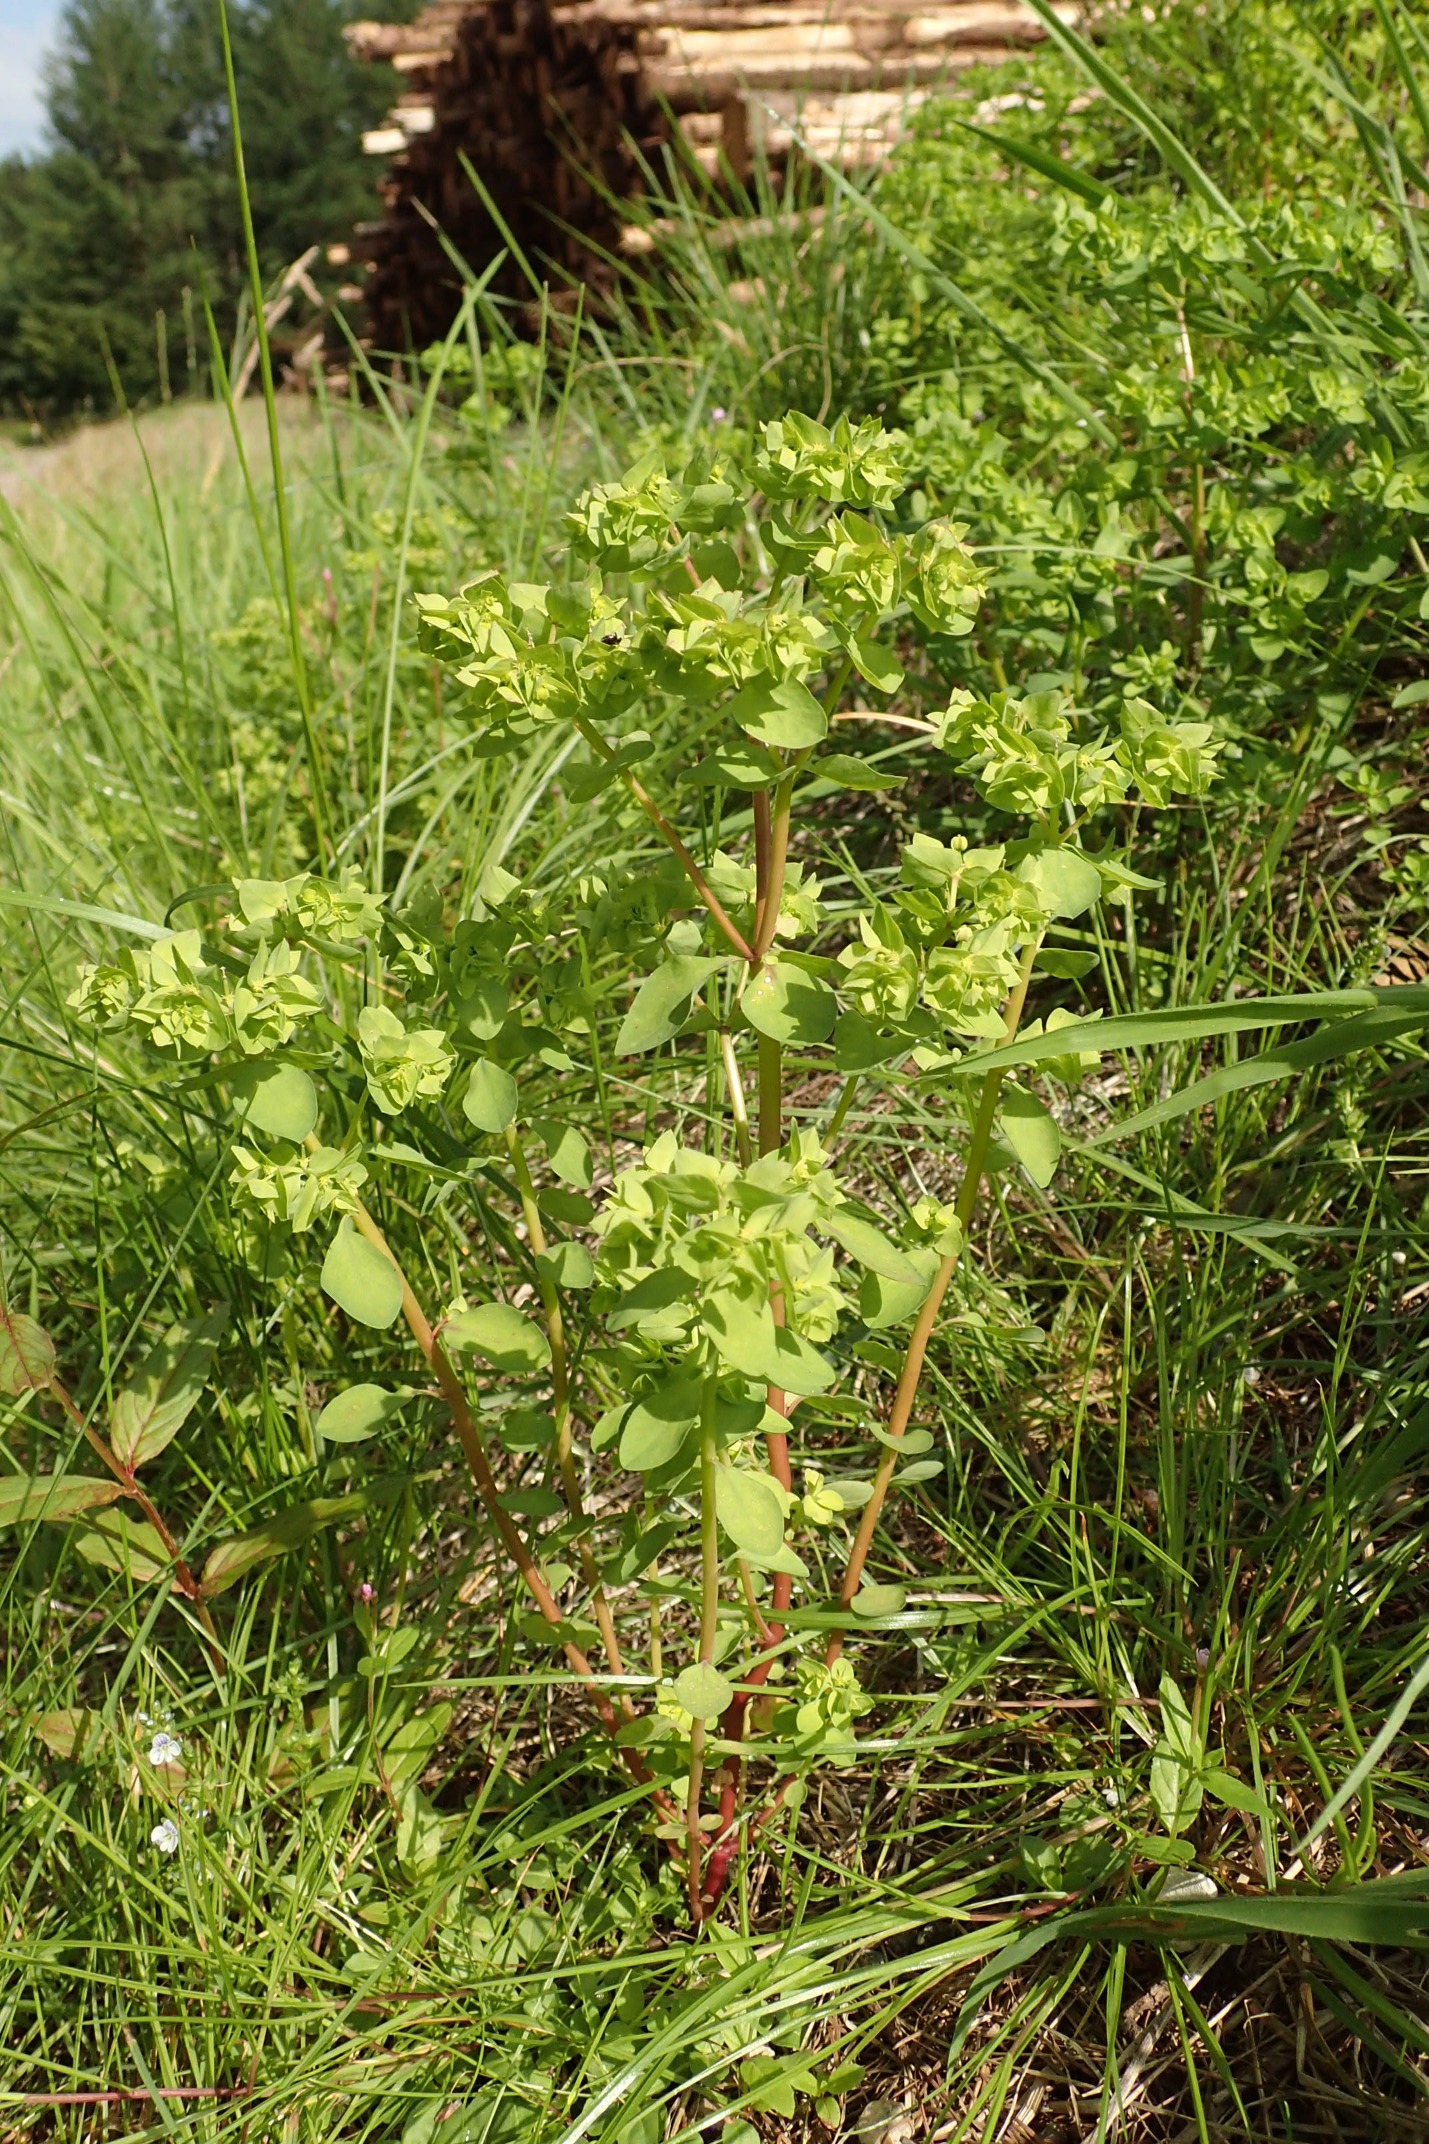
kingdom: Plantae
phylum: Tracheophyta
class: Magnoliopsida
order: Malpighiales
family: Euphorbiaceae
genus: Euphorbia
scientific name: Euphorbia peplus
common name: Gaffel-vortemælk
